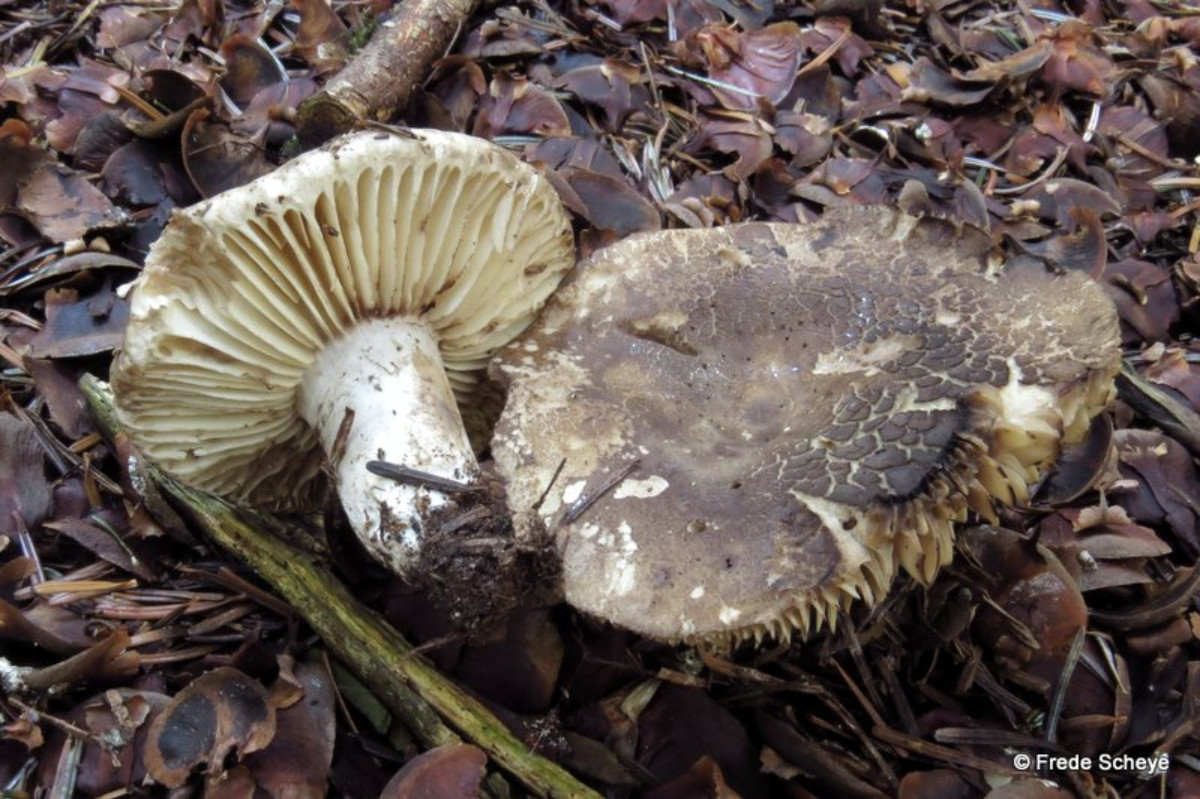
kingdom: Fungi
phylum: Basidiomycota
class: Agaricomycetes
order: Russulales
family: Russulaceae
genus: Russula
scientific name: Russula adusta
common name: sværtende skørhat
